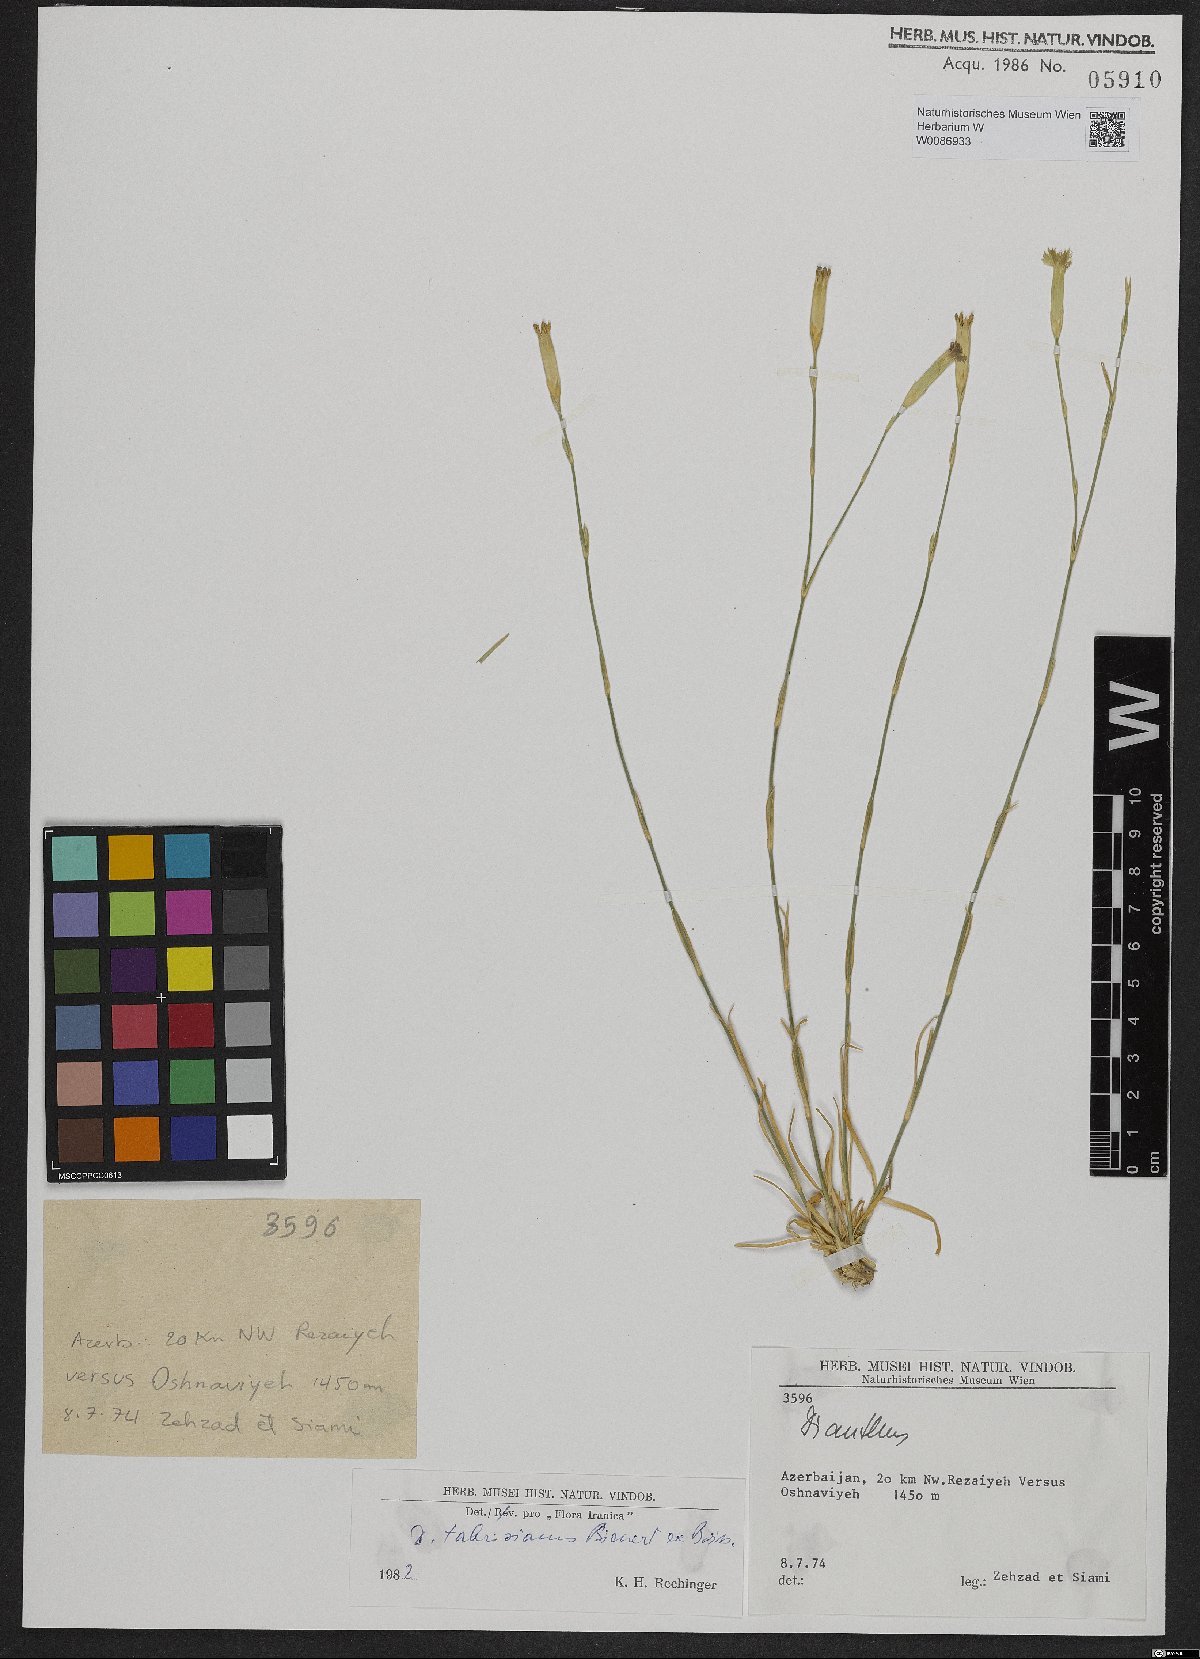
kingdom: Plantae
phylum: Tracheophyta
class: Magnoliopsida
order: Caryophyllales
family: Caryophyllaceae
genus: Dianthus
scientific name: Dianthus tabrisianus
